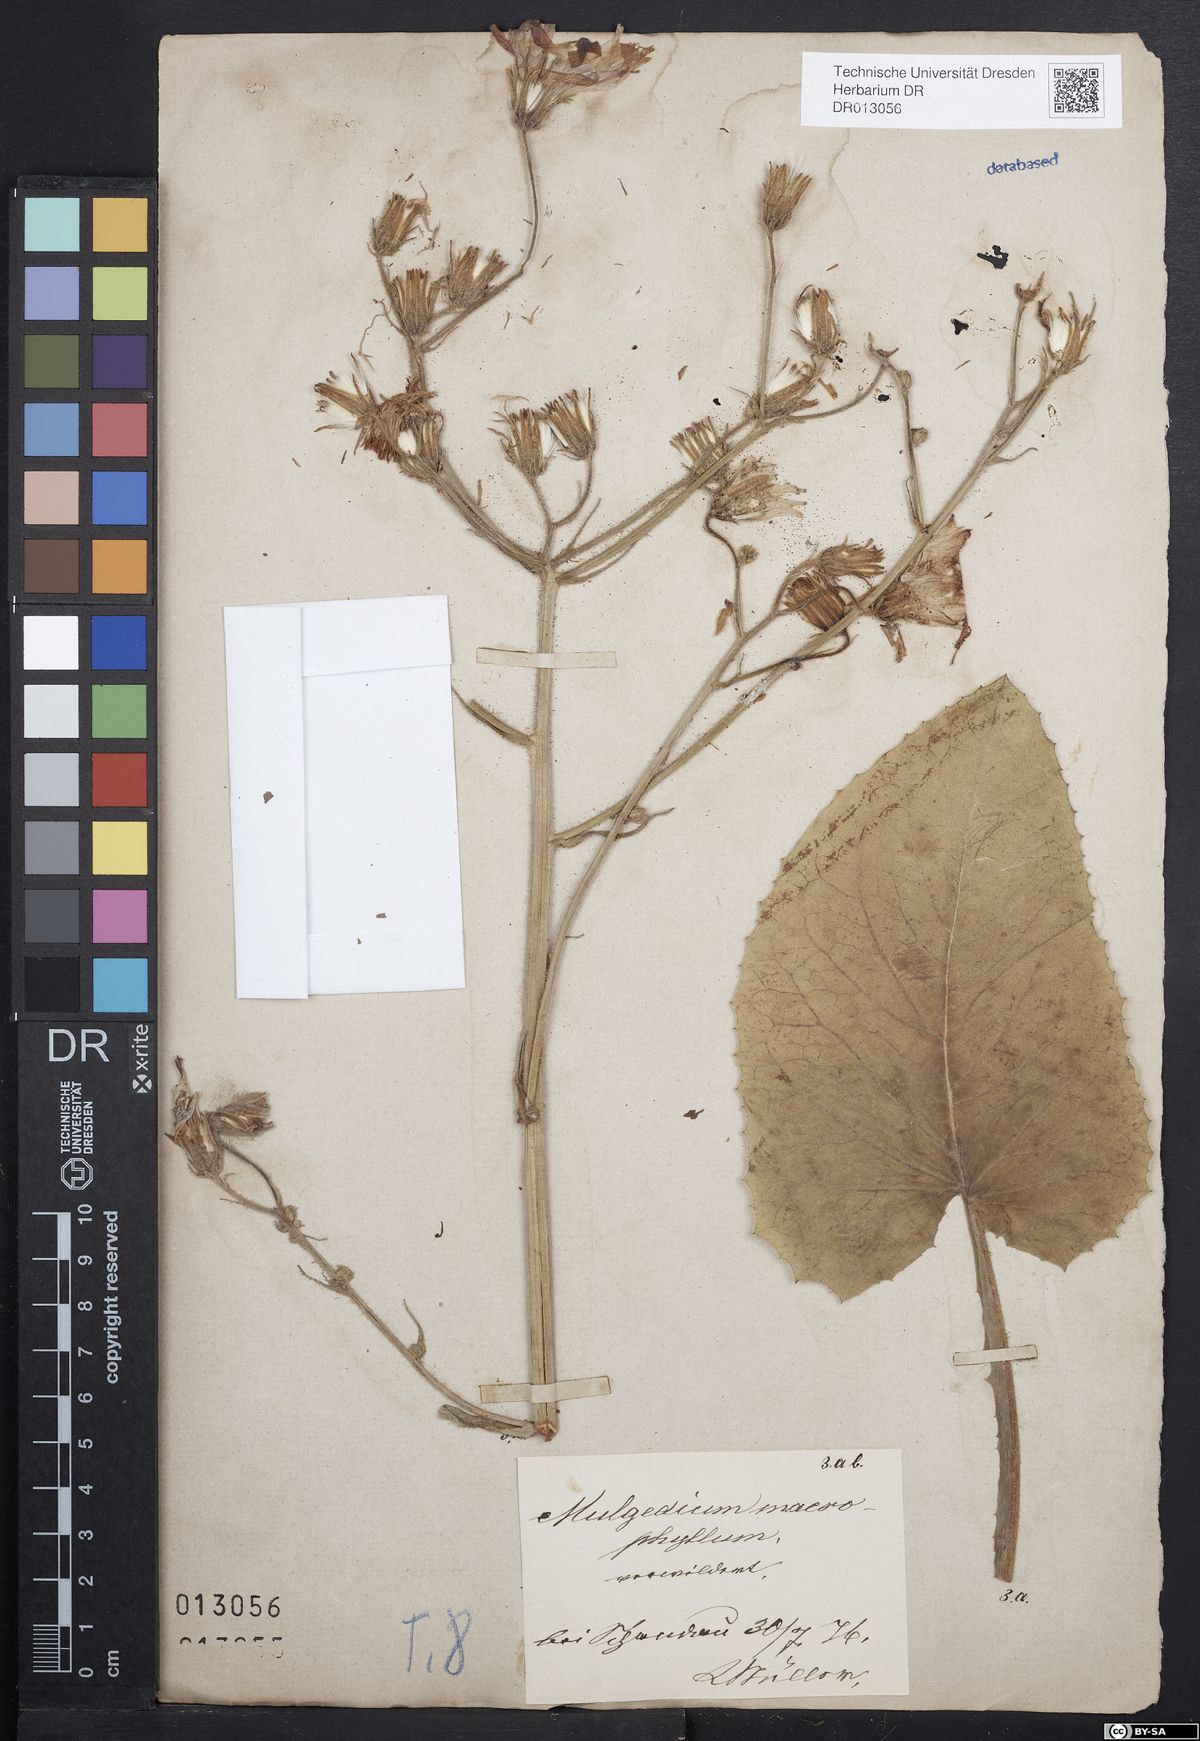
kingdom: Plantae
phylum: Tracheophyta
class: Magnoliopsida
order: Asterales
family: Asteraceae
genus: Lactuca
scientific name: Lactuca macrophylla
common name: Common blue-sow-thistle
